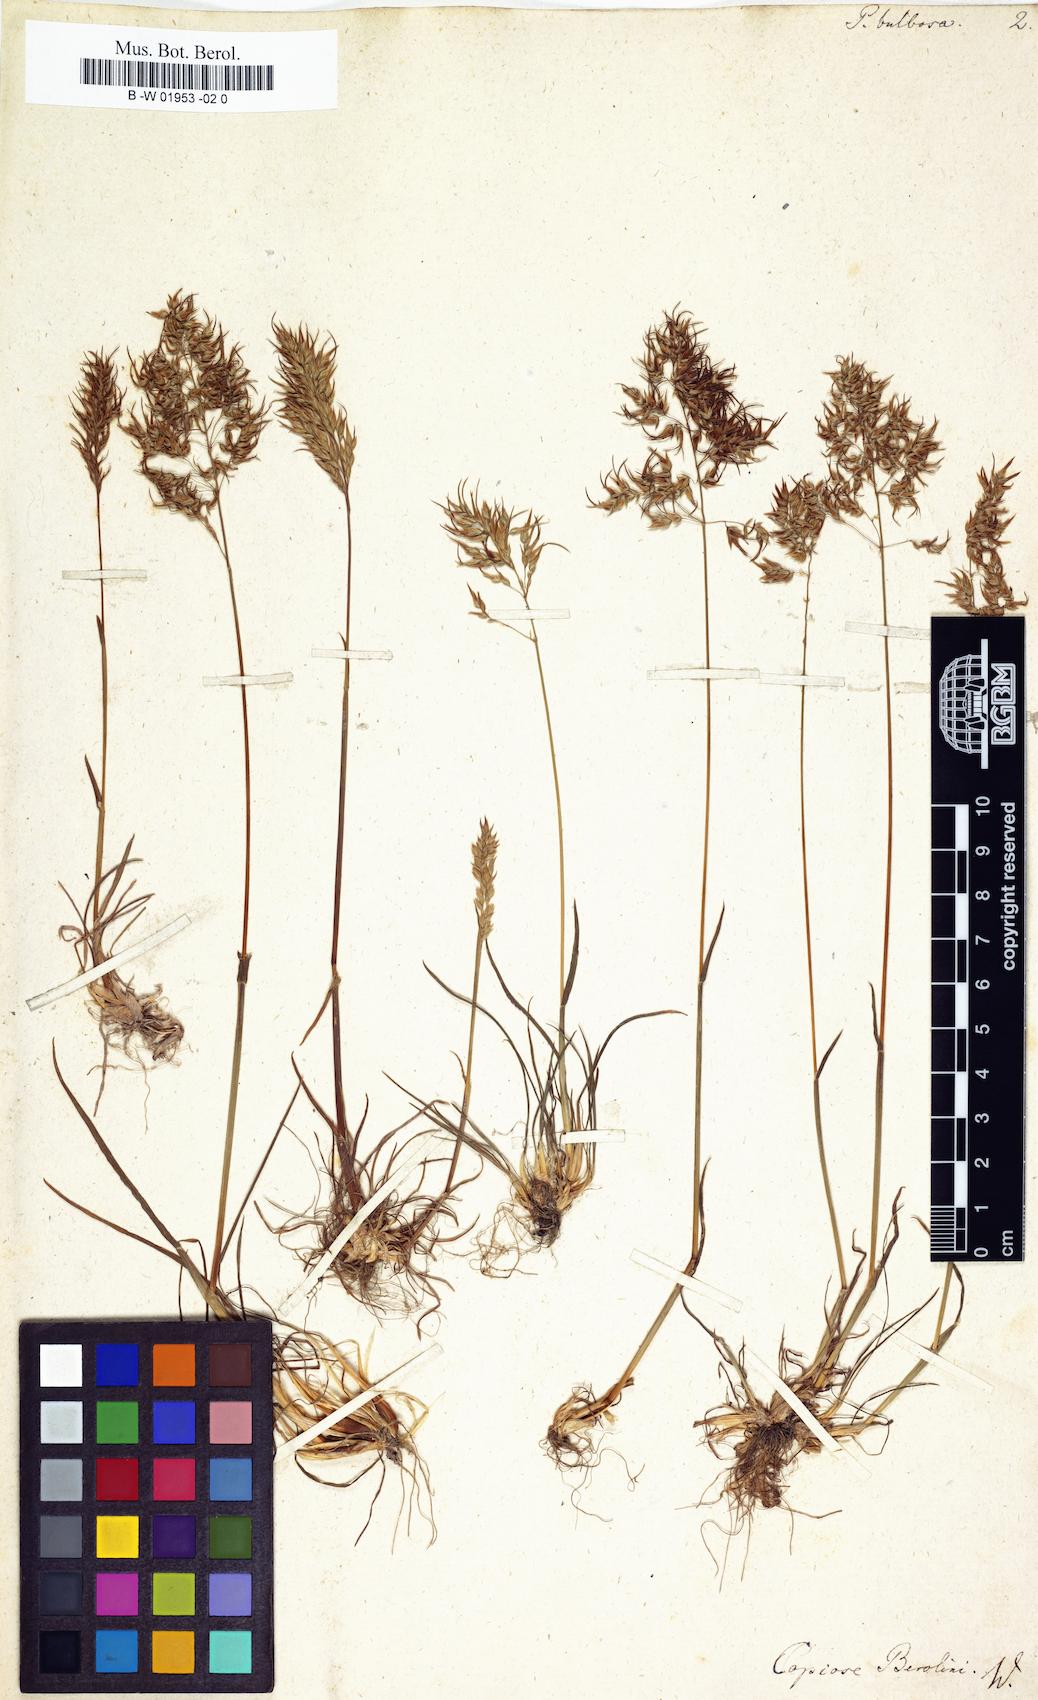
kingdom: Plantae
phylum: Tracheophyta
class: Liliopsida
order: Poales
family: Poaceae
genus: Poa
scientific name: Poa bulbosa
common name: Bulbous bluegrass
